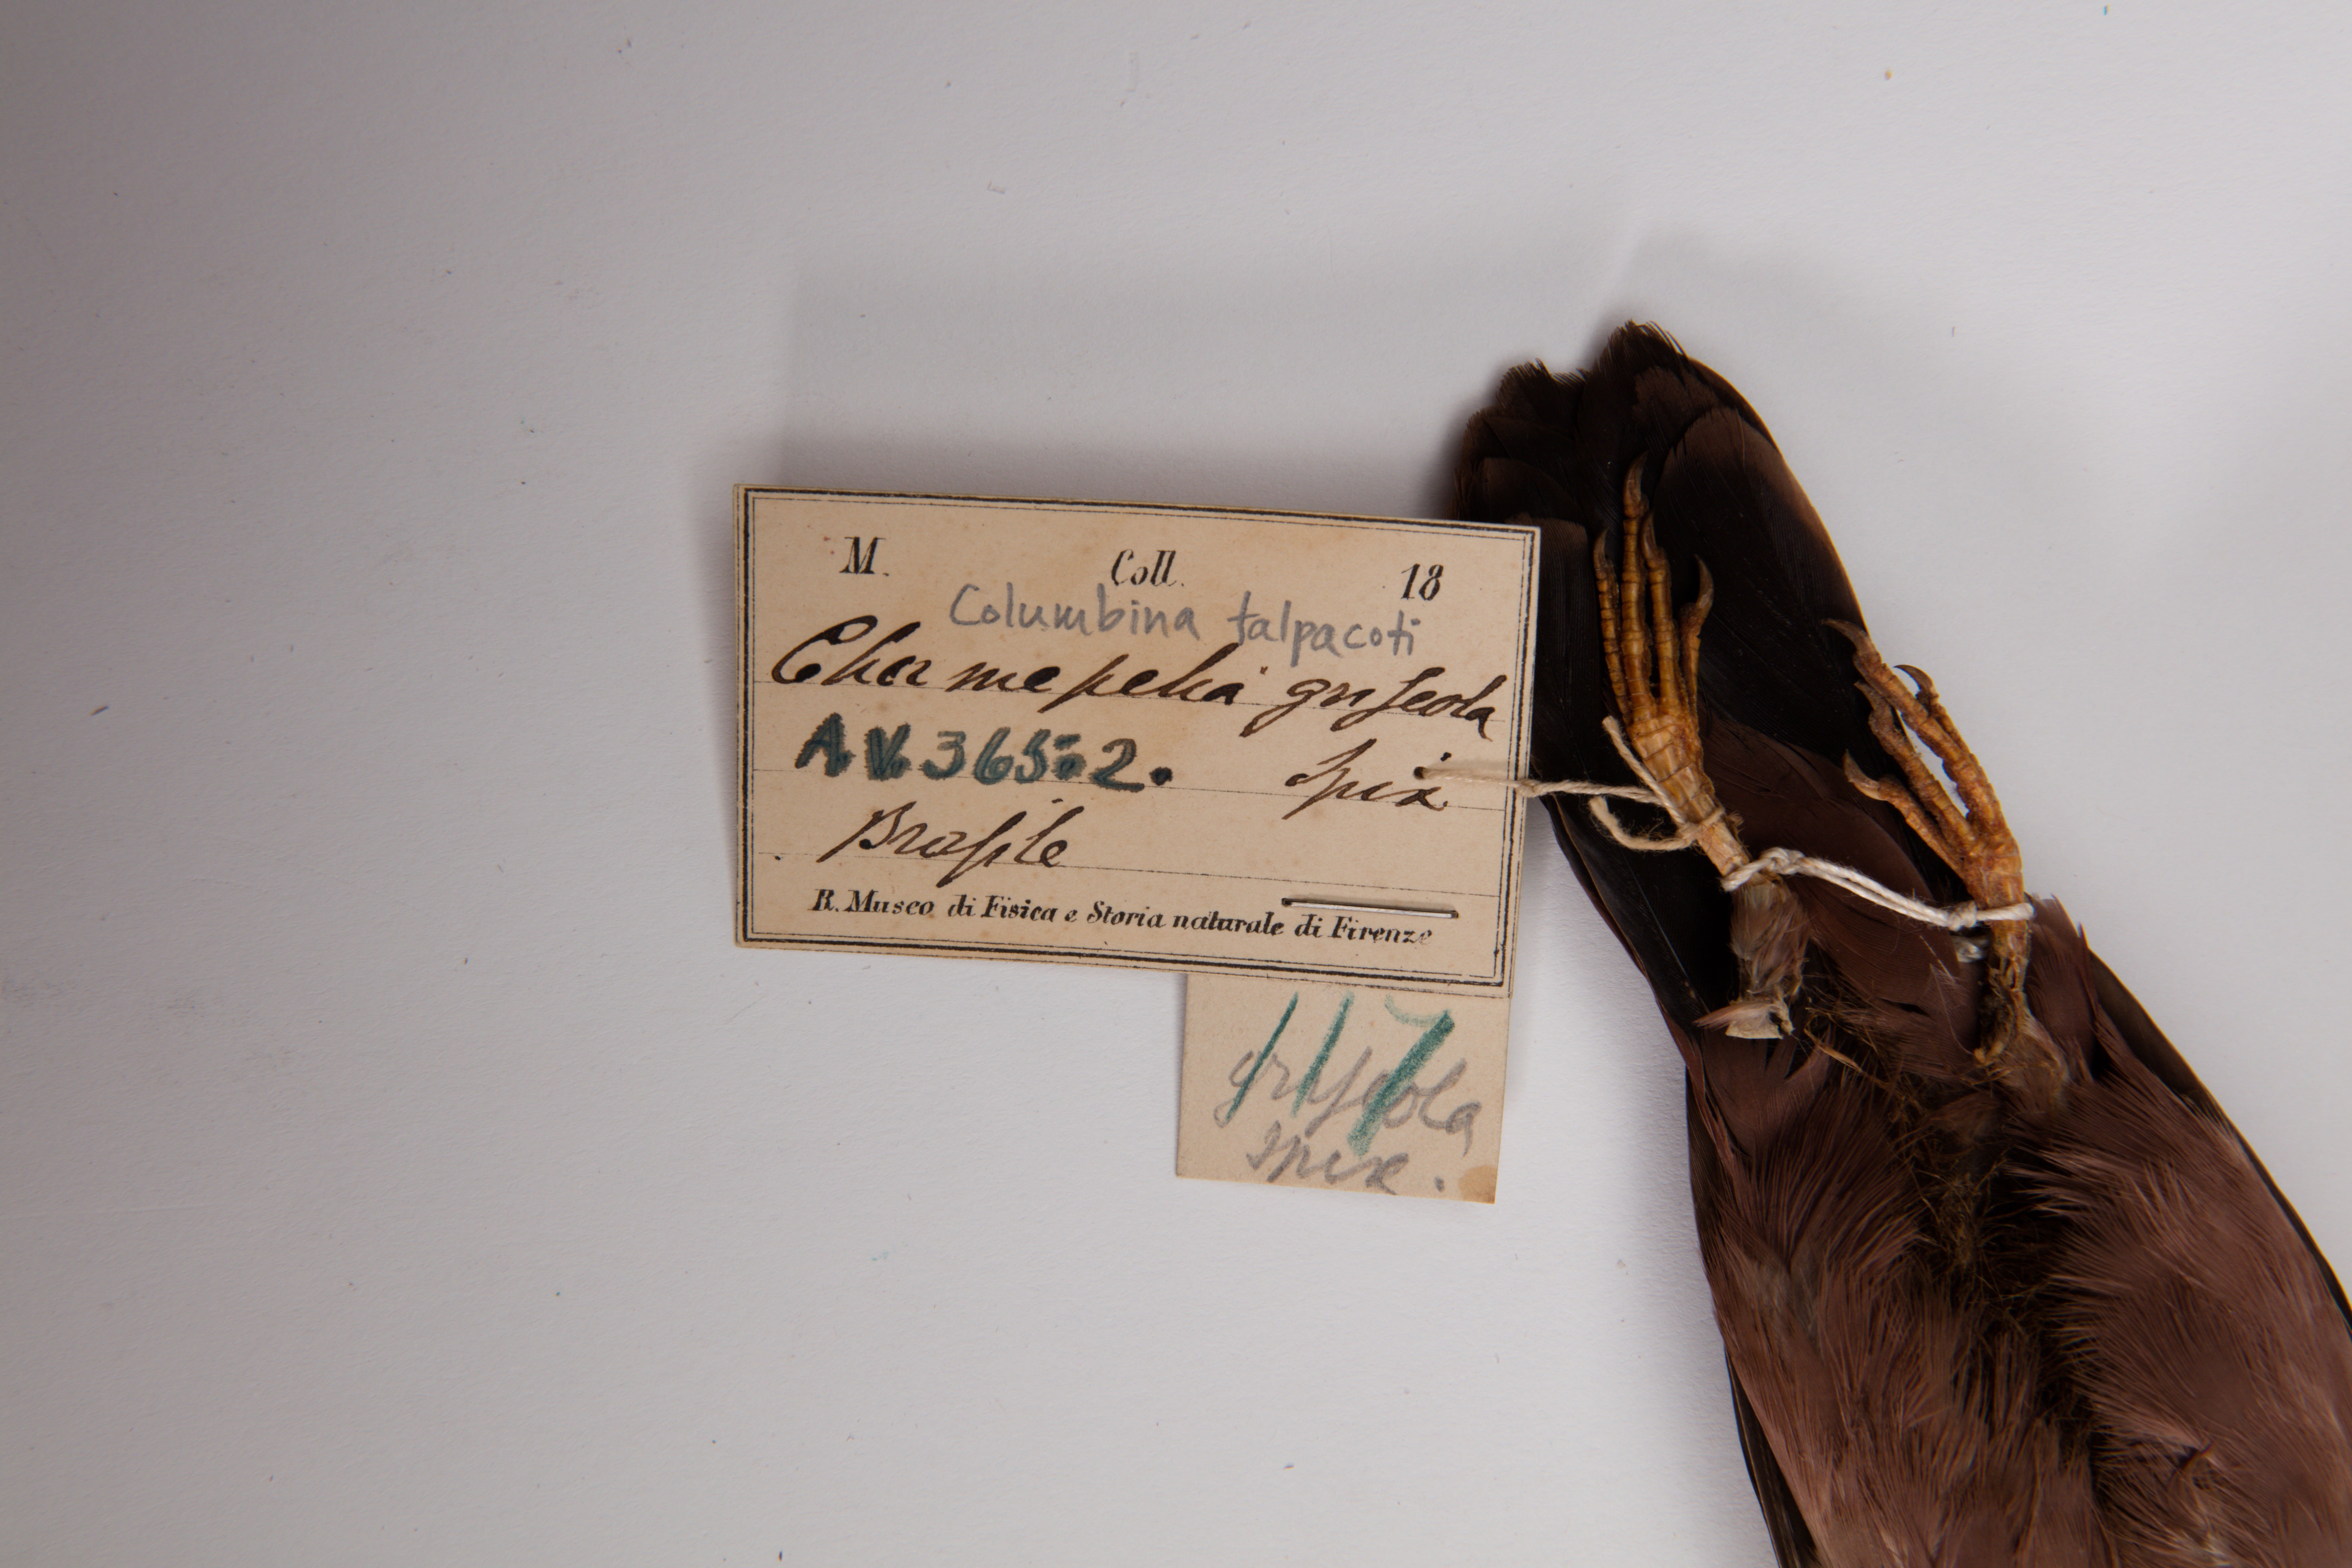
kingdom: Animalia
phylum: Chordata
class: Aves
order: Columbiformes
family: Columbidae
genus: Columbina
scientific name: Columbina talpacoti
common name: Ruddy ground dove
